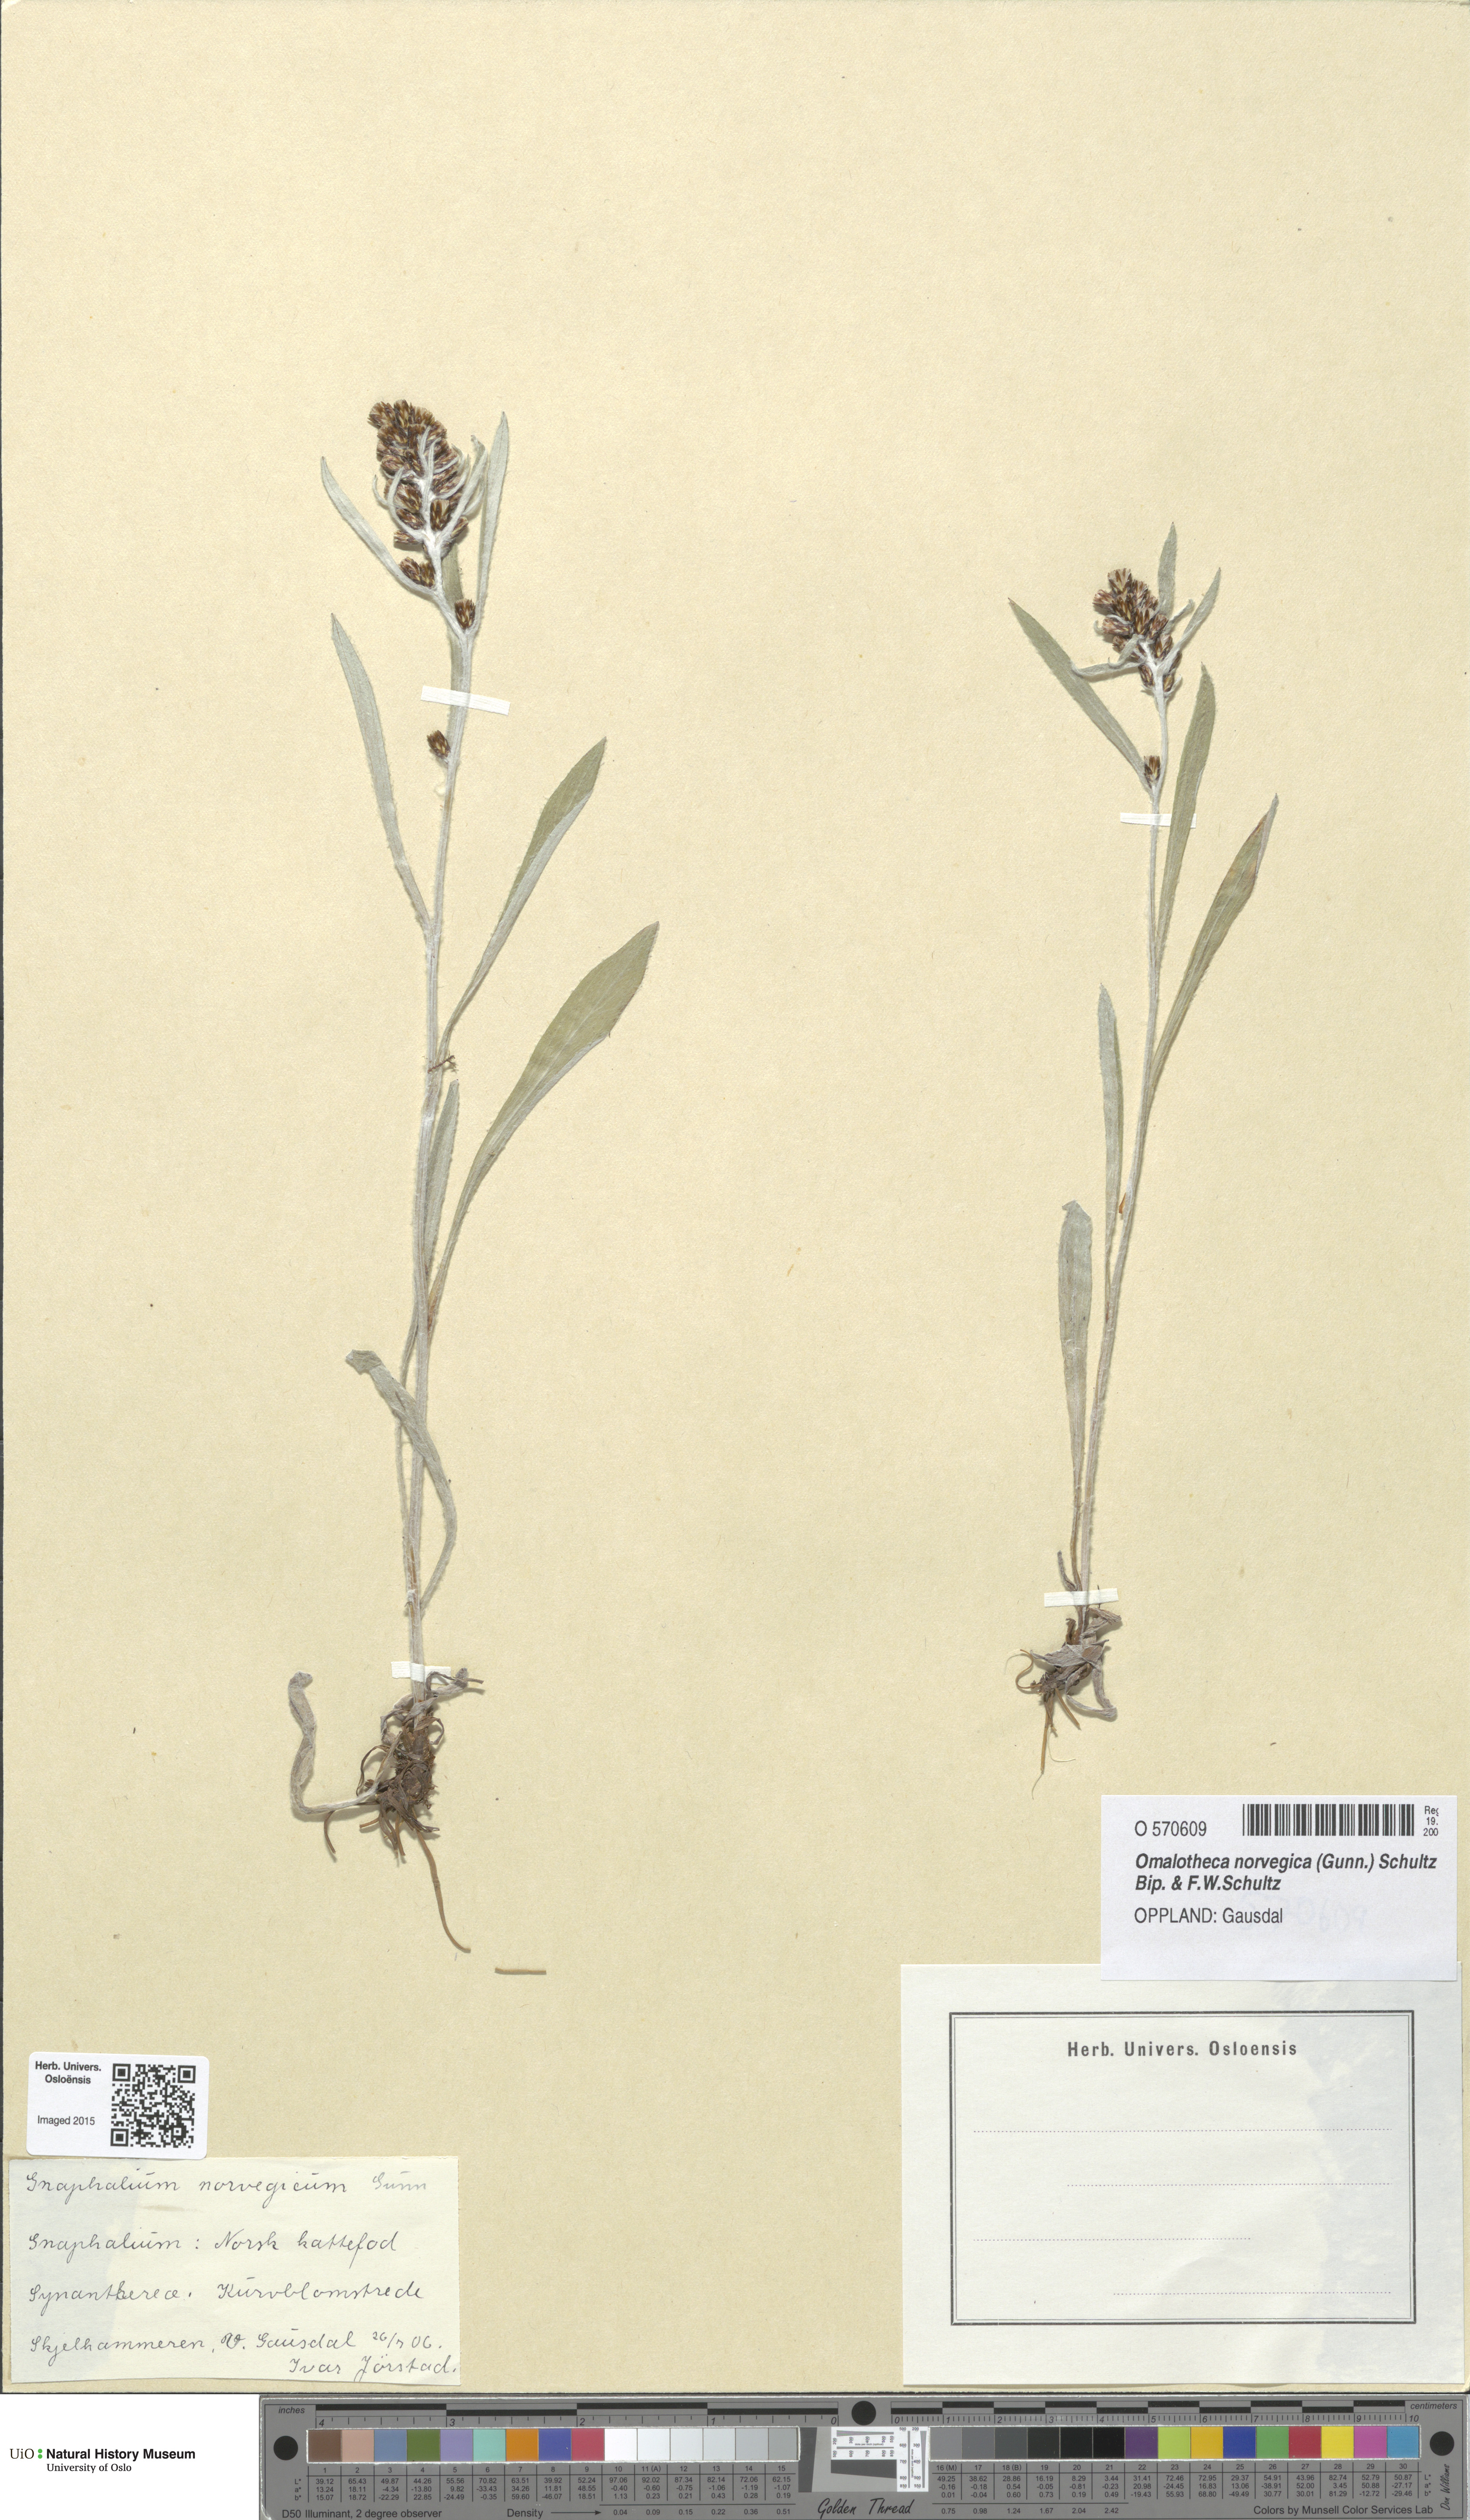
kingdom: Plantae
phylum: Tracheophyta
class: Magnoliopsida
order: Asterales
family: Asteraceae
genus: Omalotheca
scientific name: Omalotheca norvegica
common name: Norwegian arctic-cudweed
